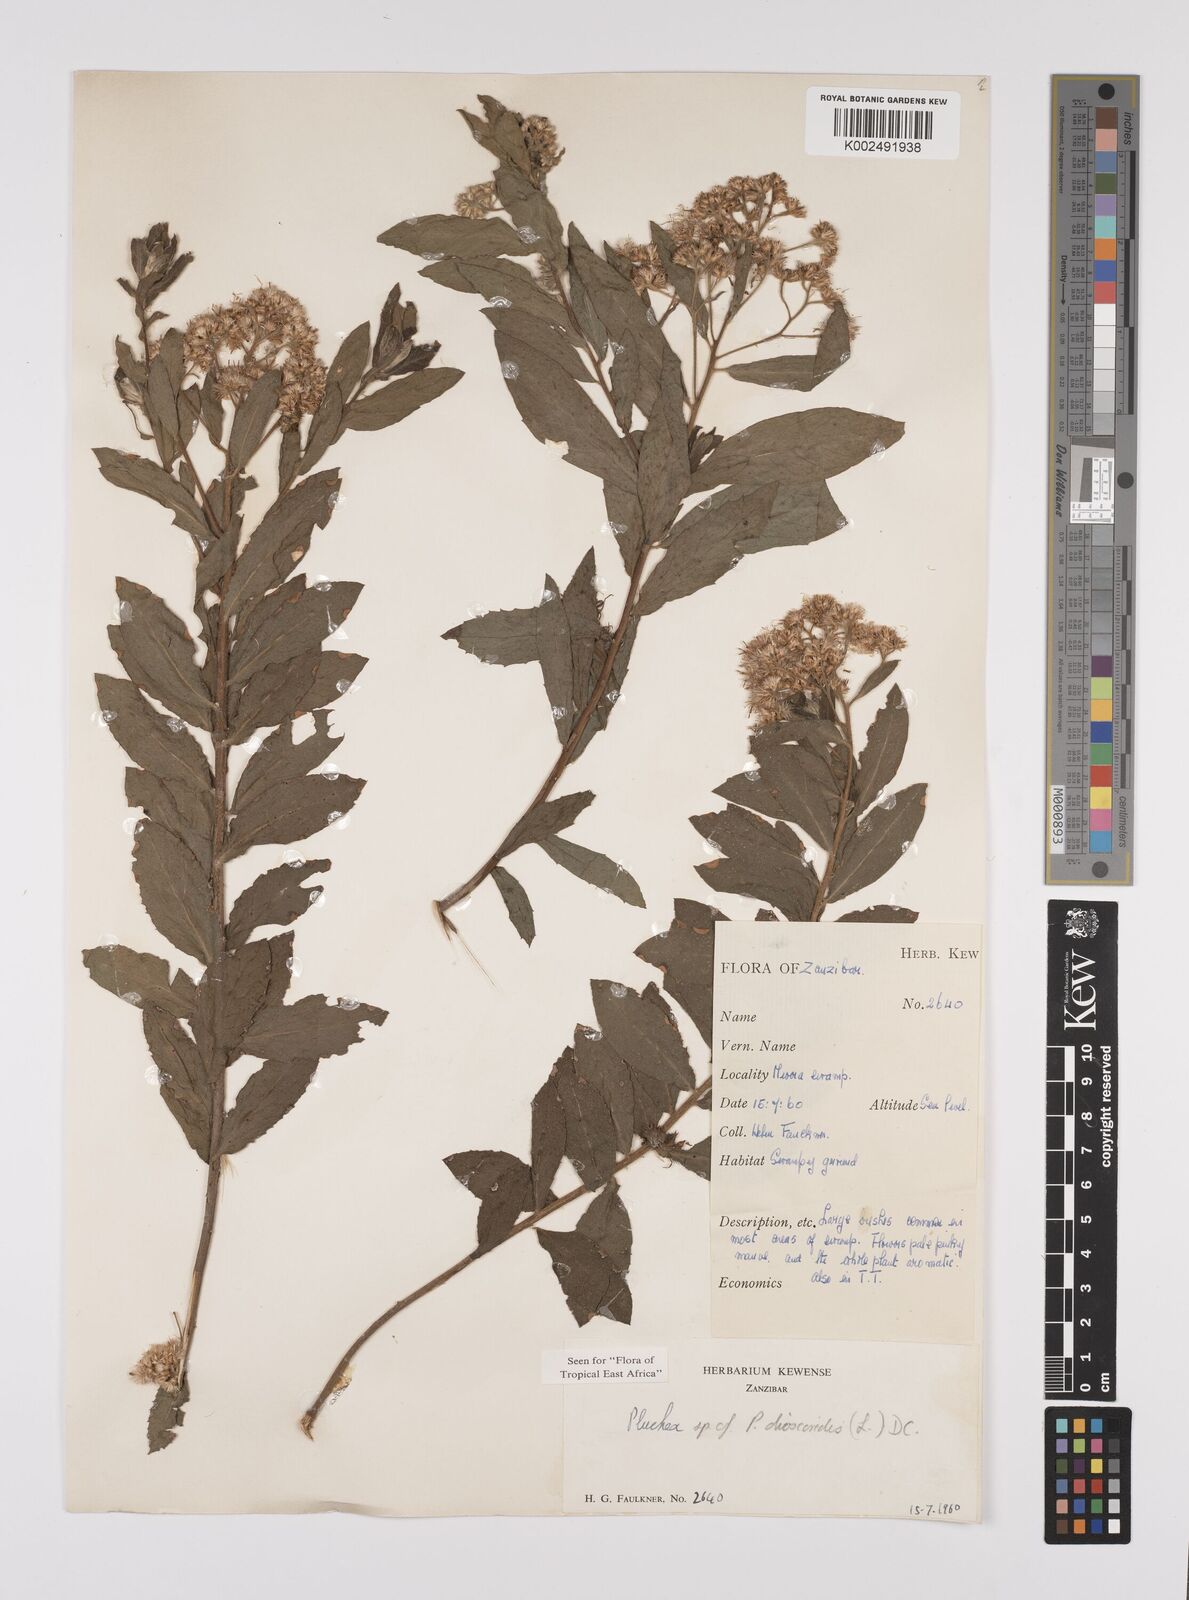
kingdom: Plantae
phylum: Tracheophyta
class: Magnoliopsida
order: Asterales
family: Asteraceae
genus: Pluchea
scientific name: Pluchea dioscoridis
